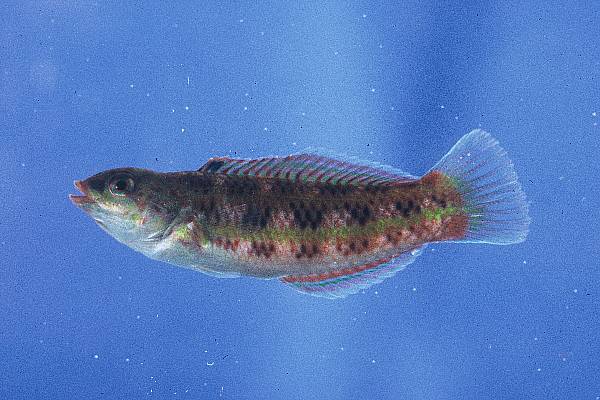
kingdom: Animalia
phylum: Chordata
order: Perciformes
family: Labridae
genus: Thalassoma
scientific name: Thalassoma purpureum
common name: Parrotfish
